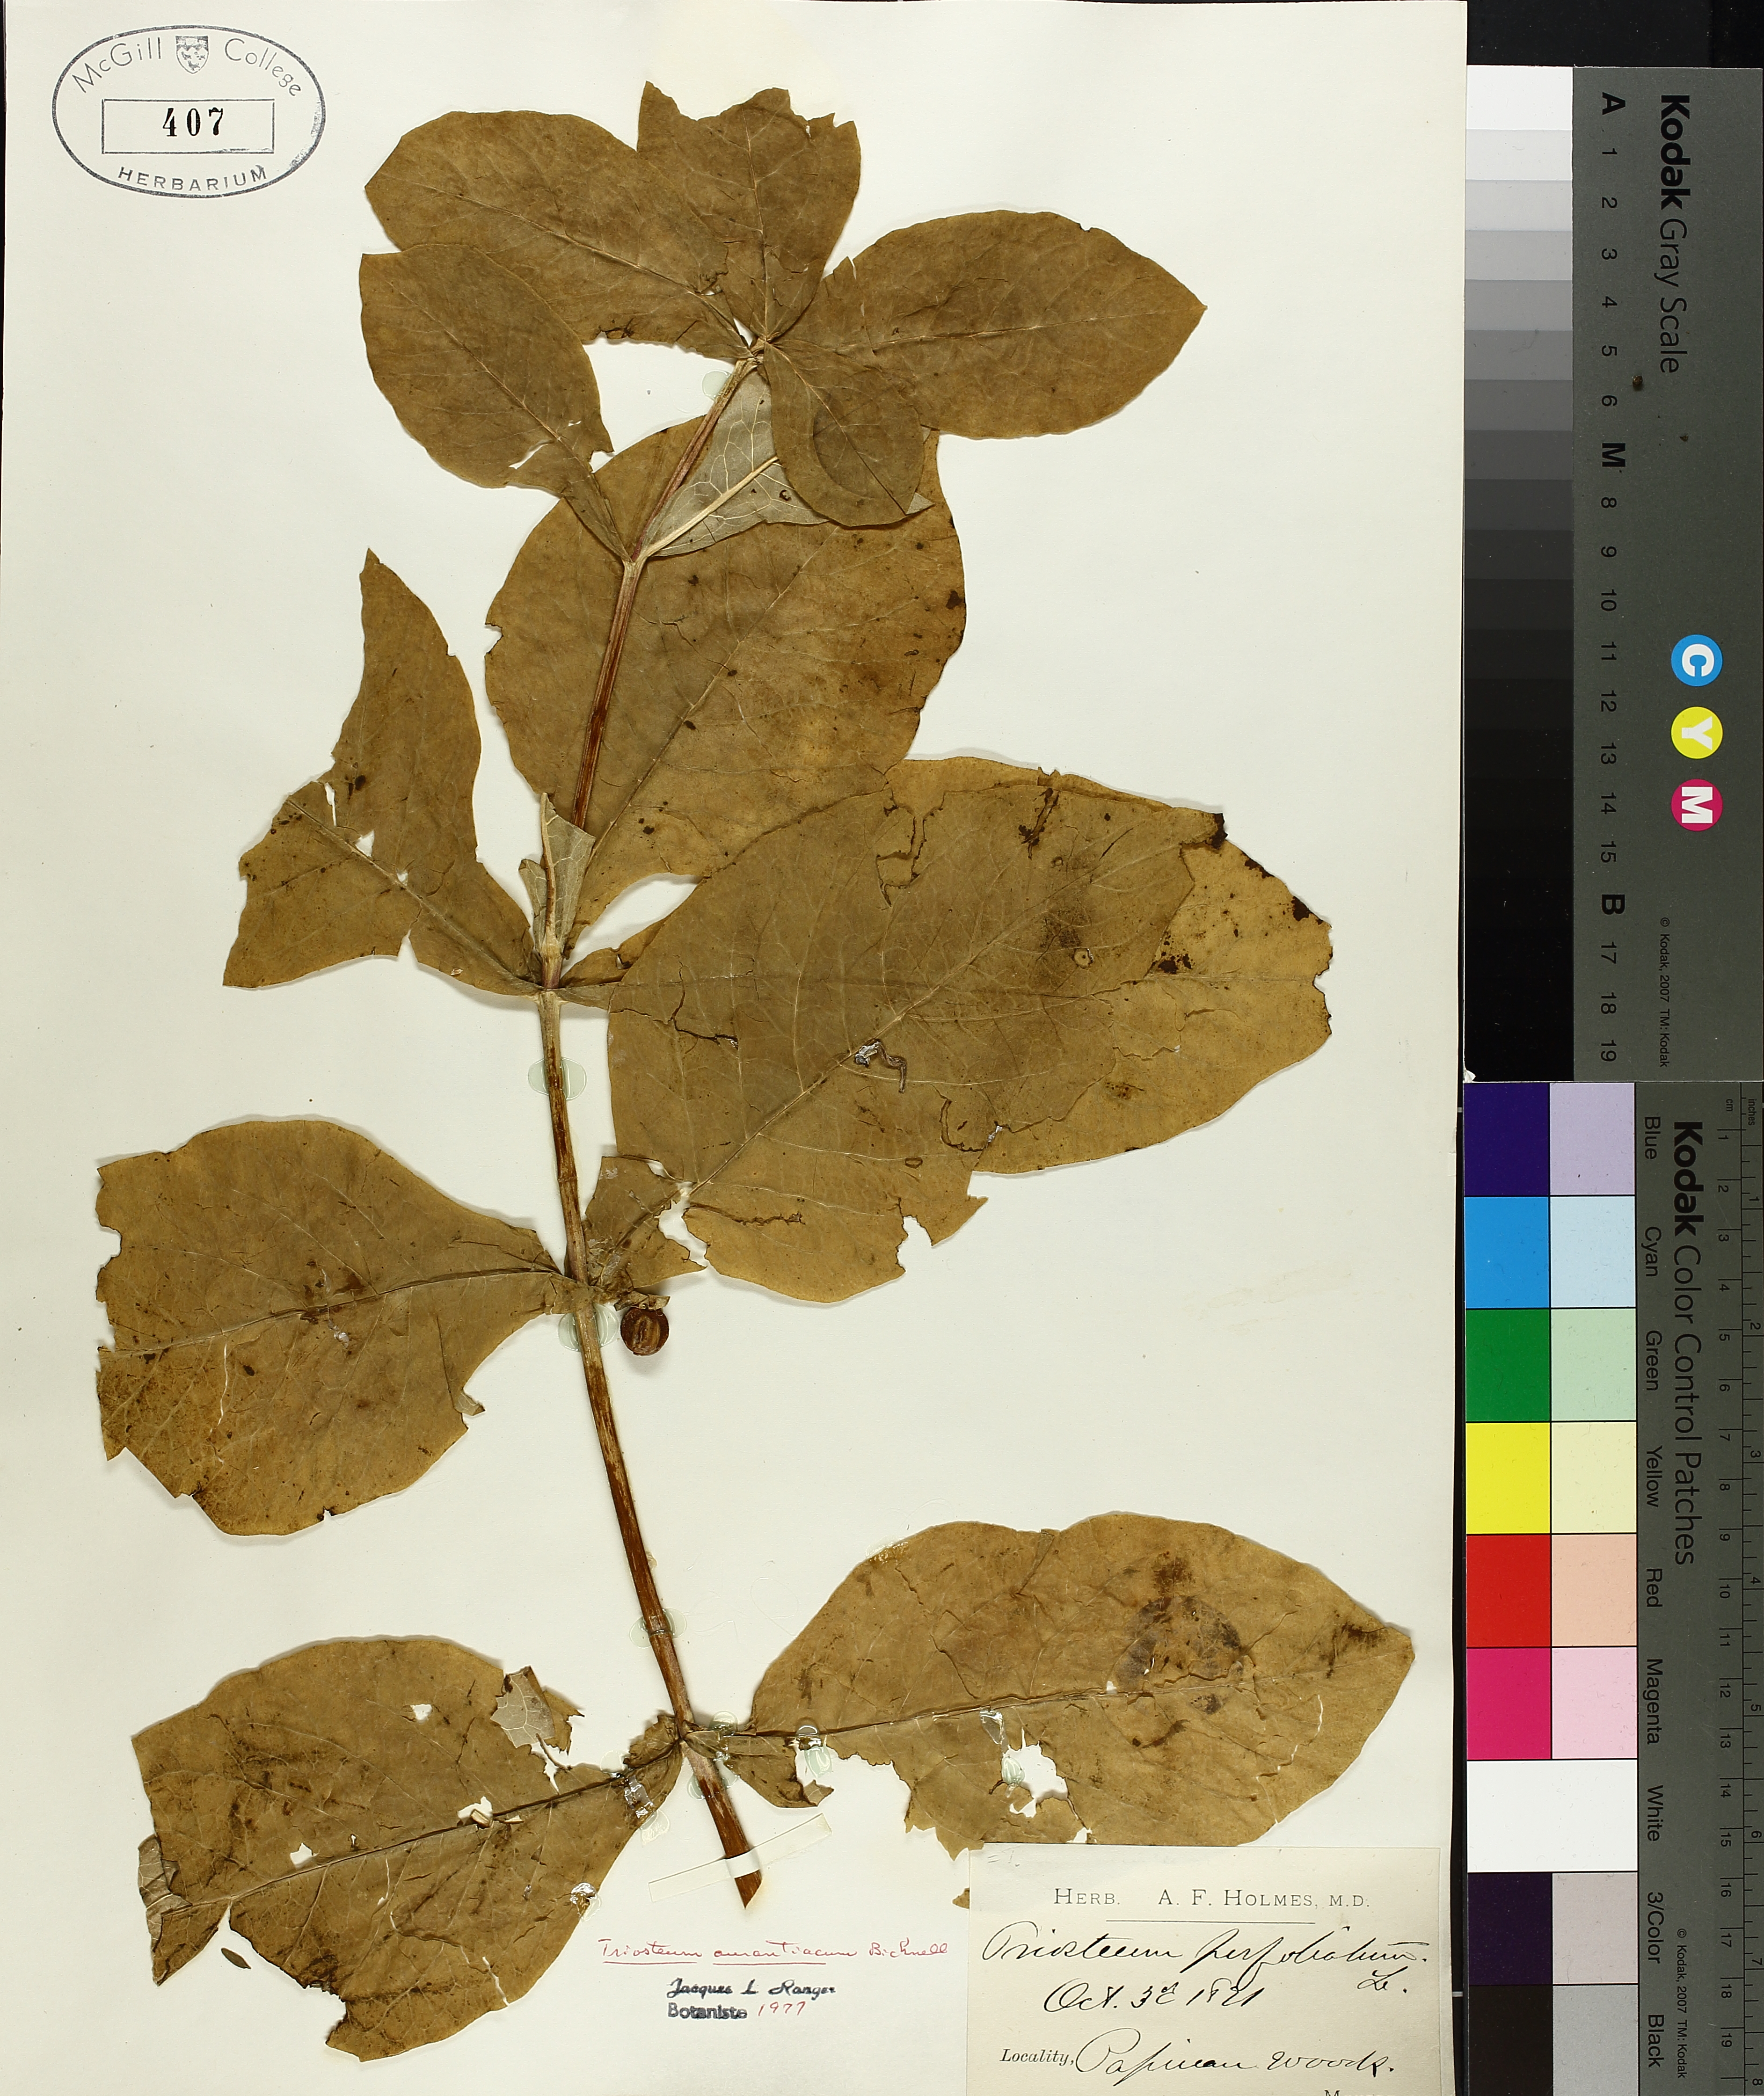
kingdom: Plantae
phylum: Tracheophyta
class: Magnoliopsida
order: Dipsacales
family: Caprifoliaceae
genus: Triosteum
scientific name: Triosteum aurantiacum
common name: Coffee tinker's-weed
